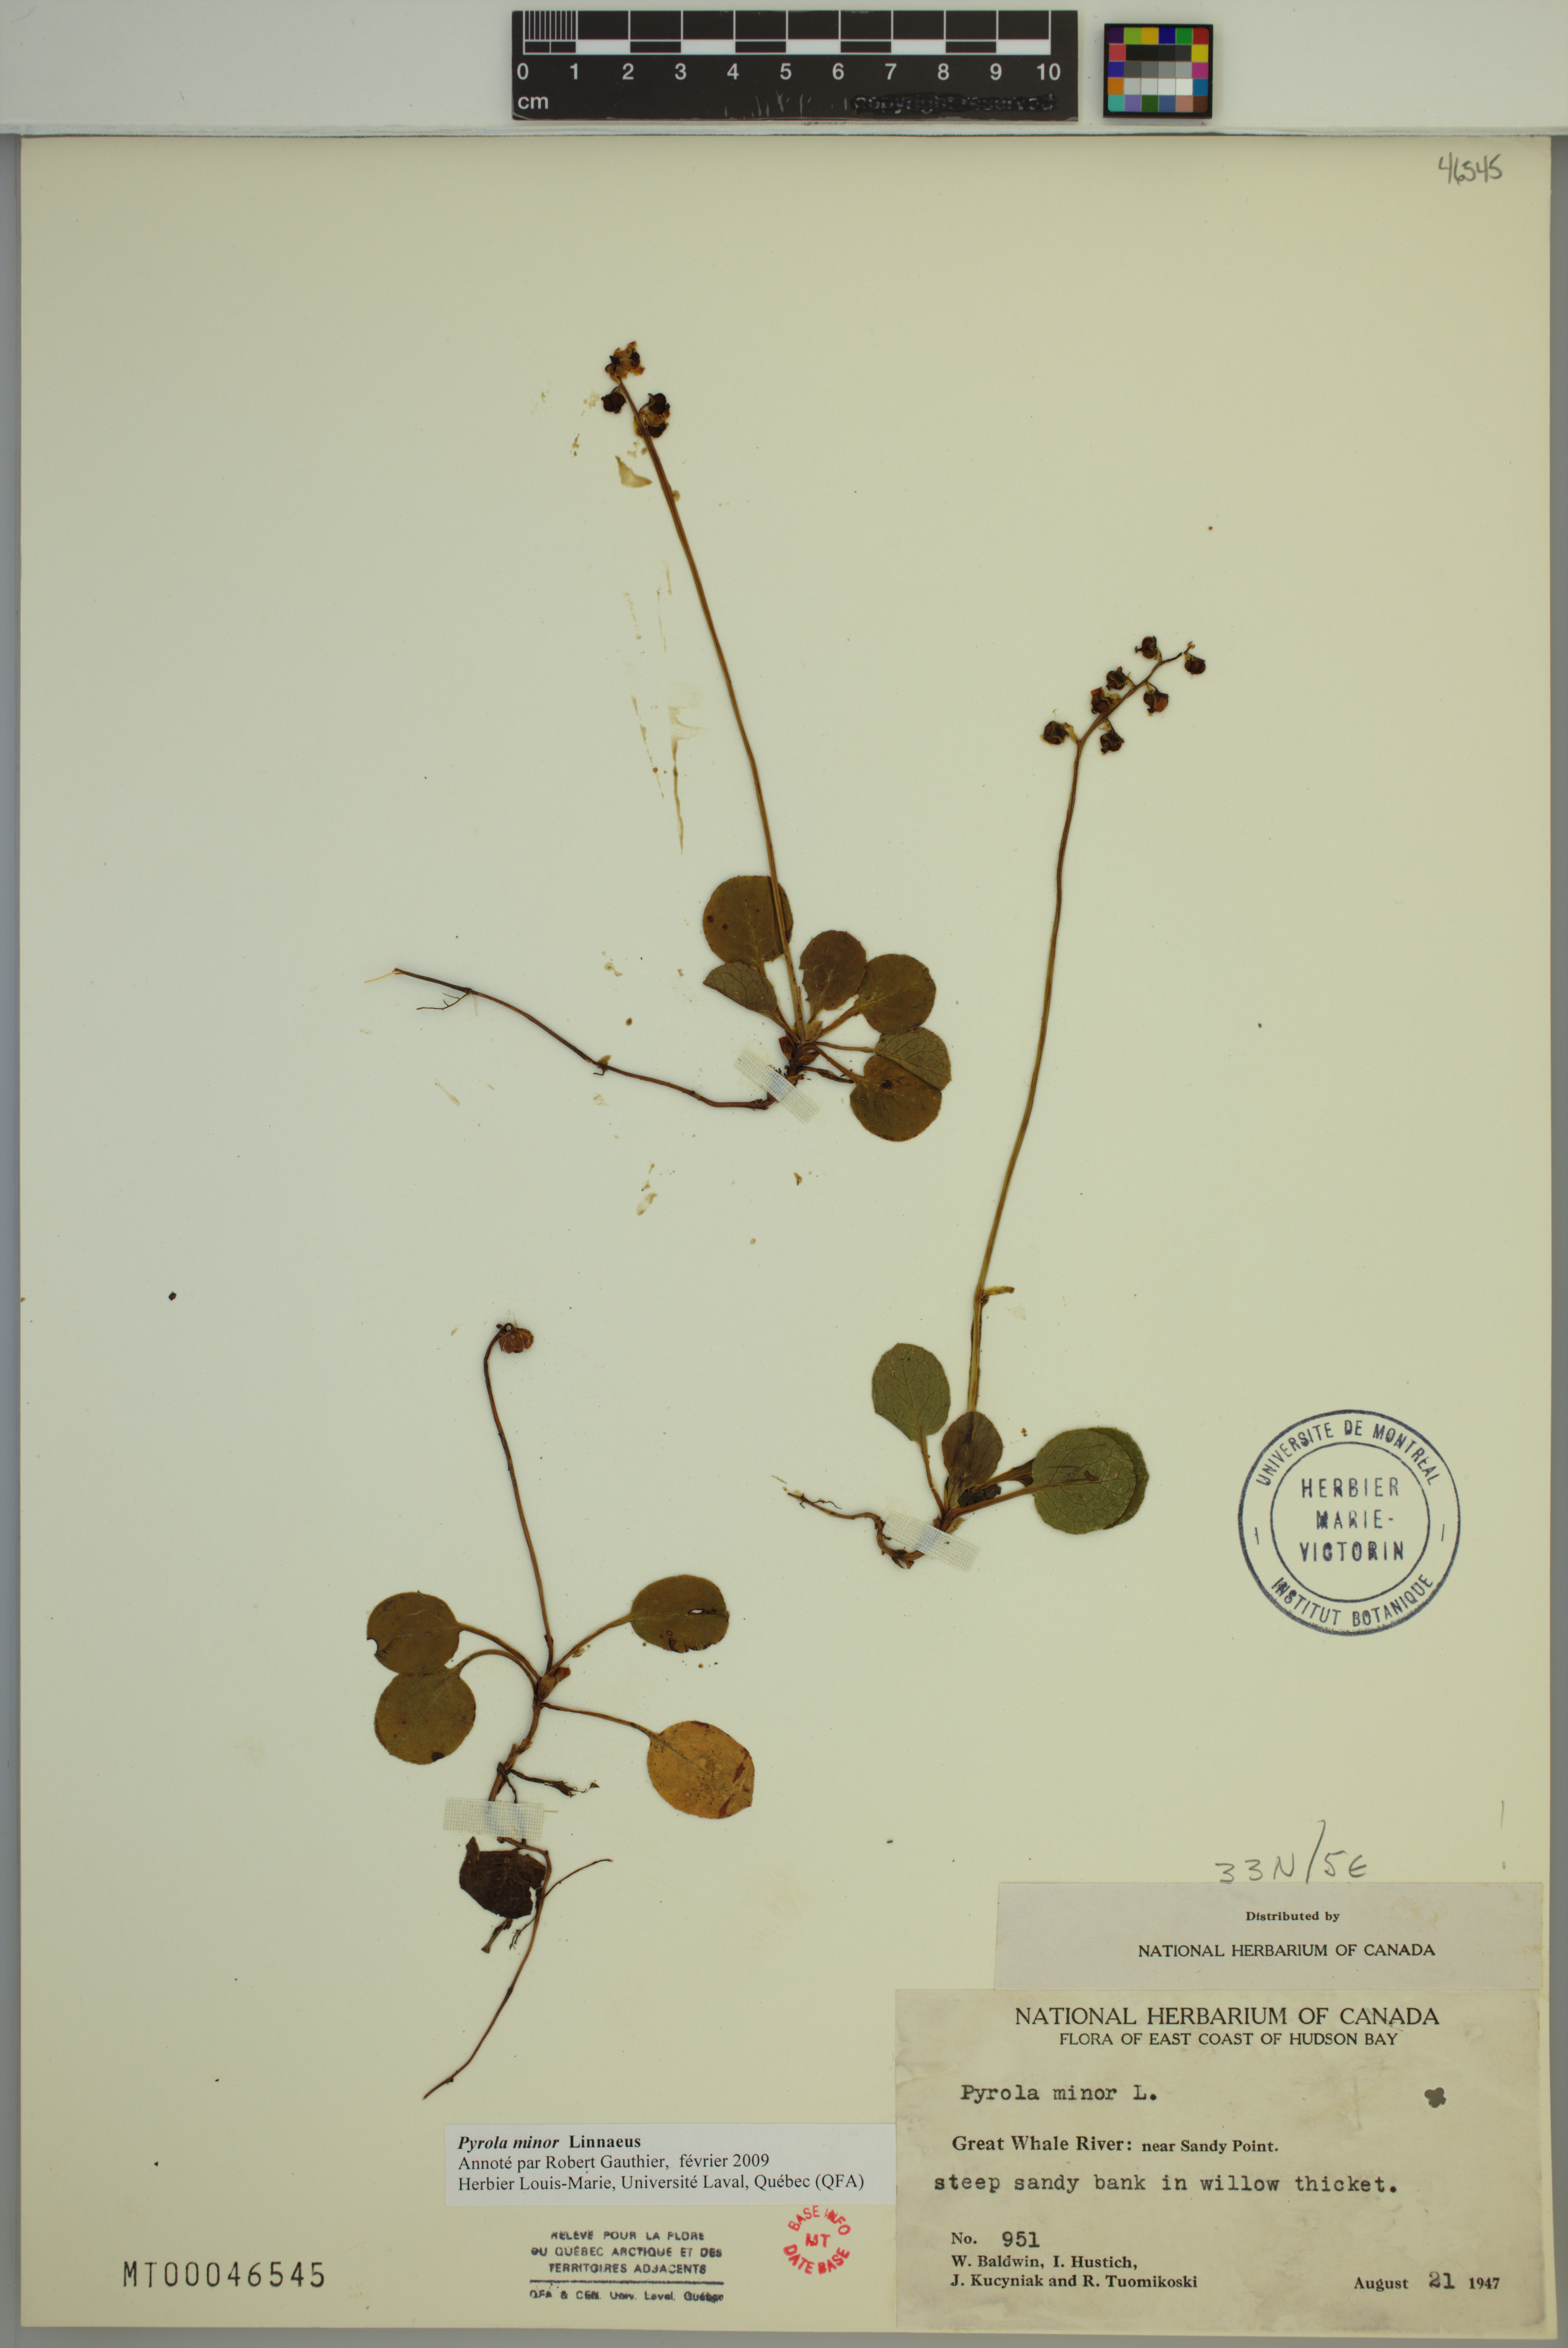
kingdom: Plantae
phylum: Tracheophyta
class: Magnoliopsida
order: Ericales
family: Ericaceae
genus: Pyrola
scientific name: Pyrola minor
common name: Common wintergreen
